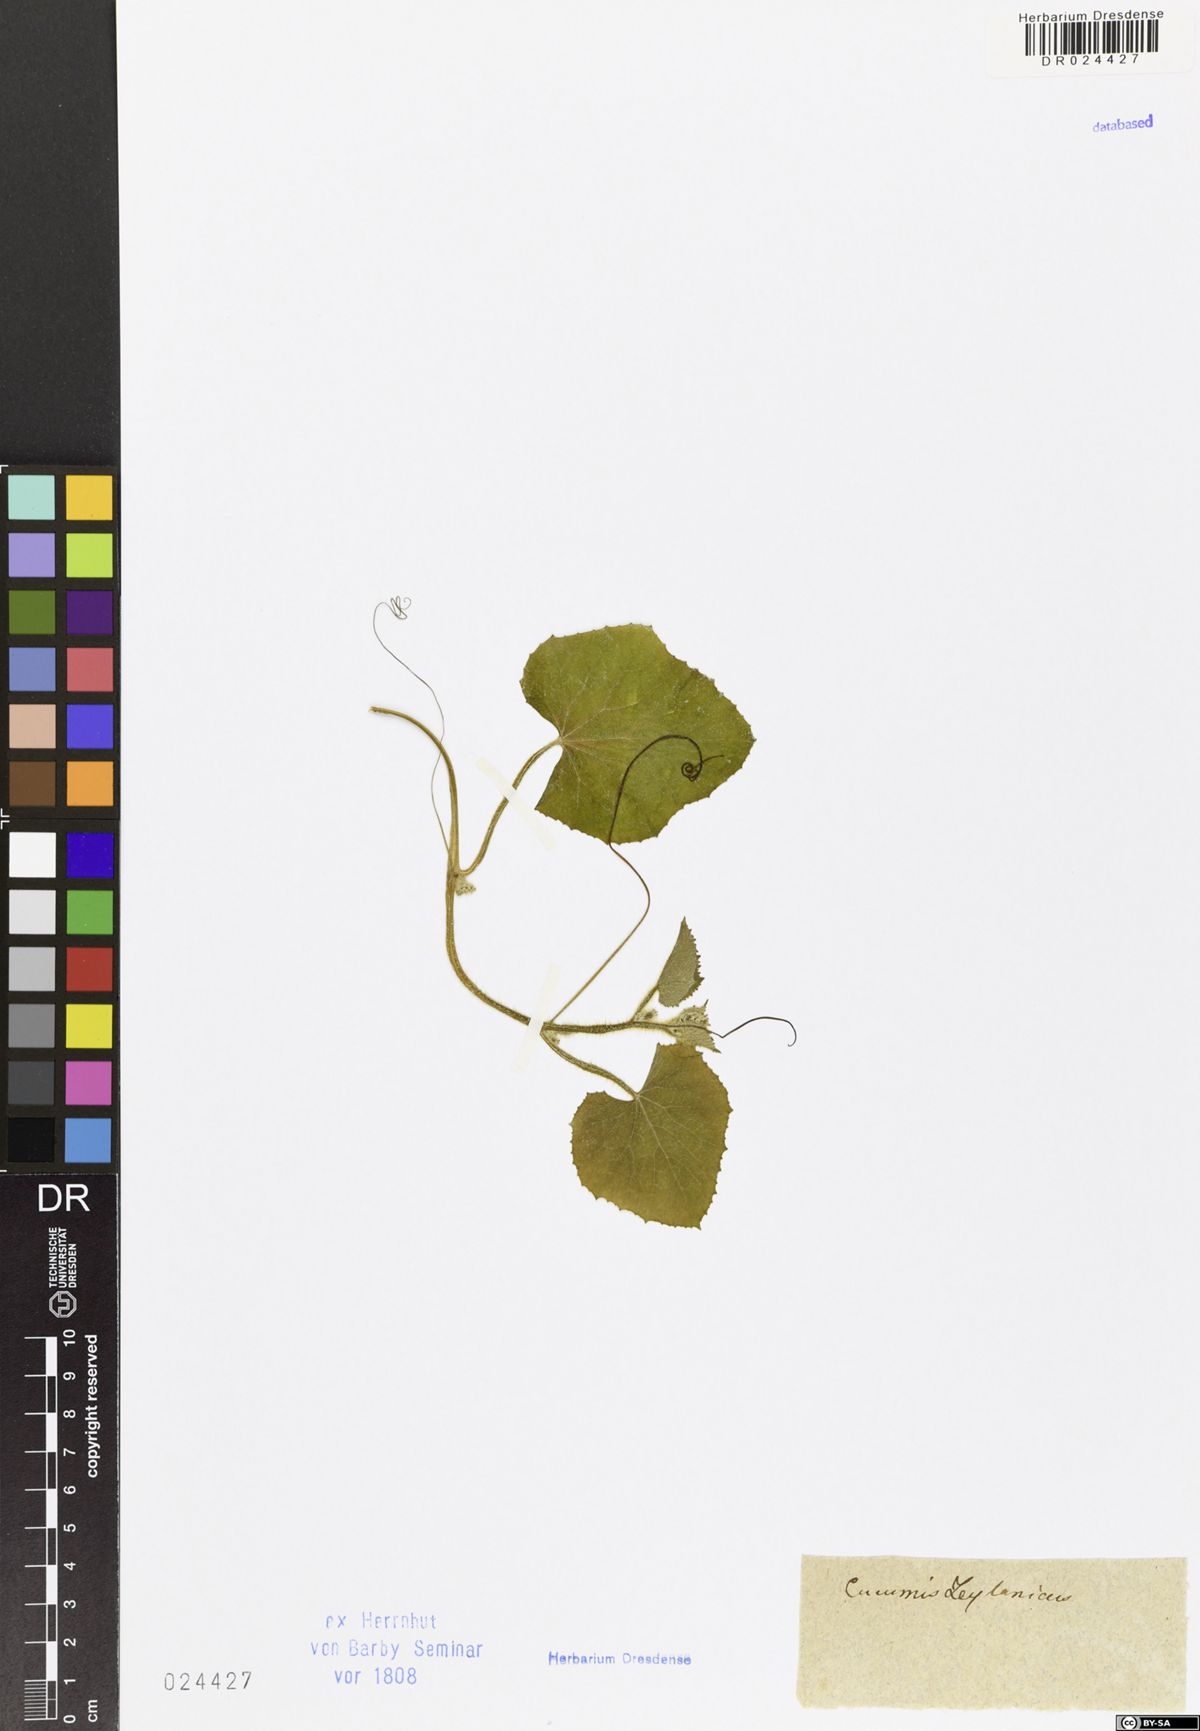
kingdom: Plantae
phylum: Tracheophyta
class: Magnoliopsida
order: Cucurbitales
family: Cucurbitaceae
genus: Cucumis
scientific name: Cucumis
